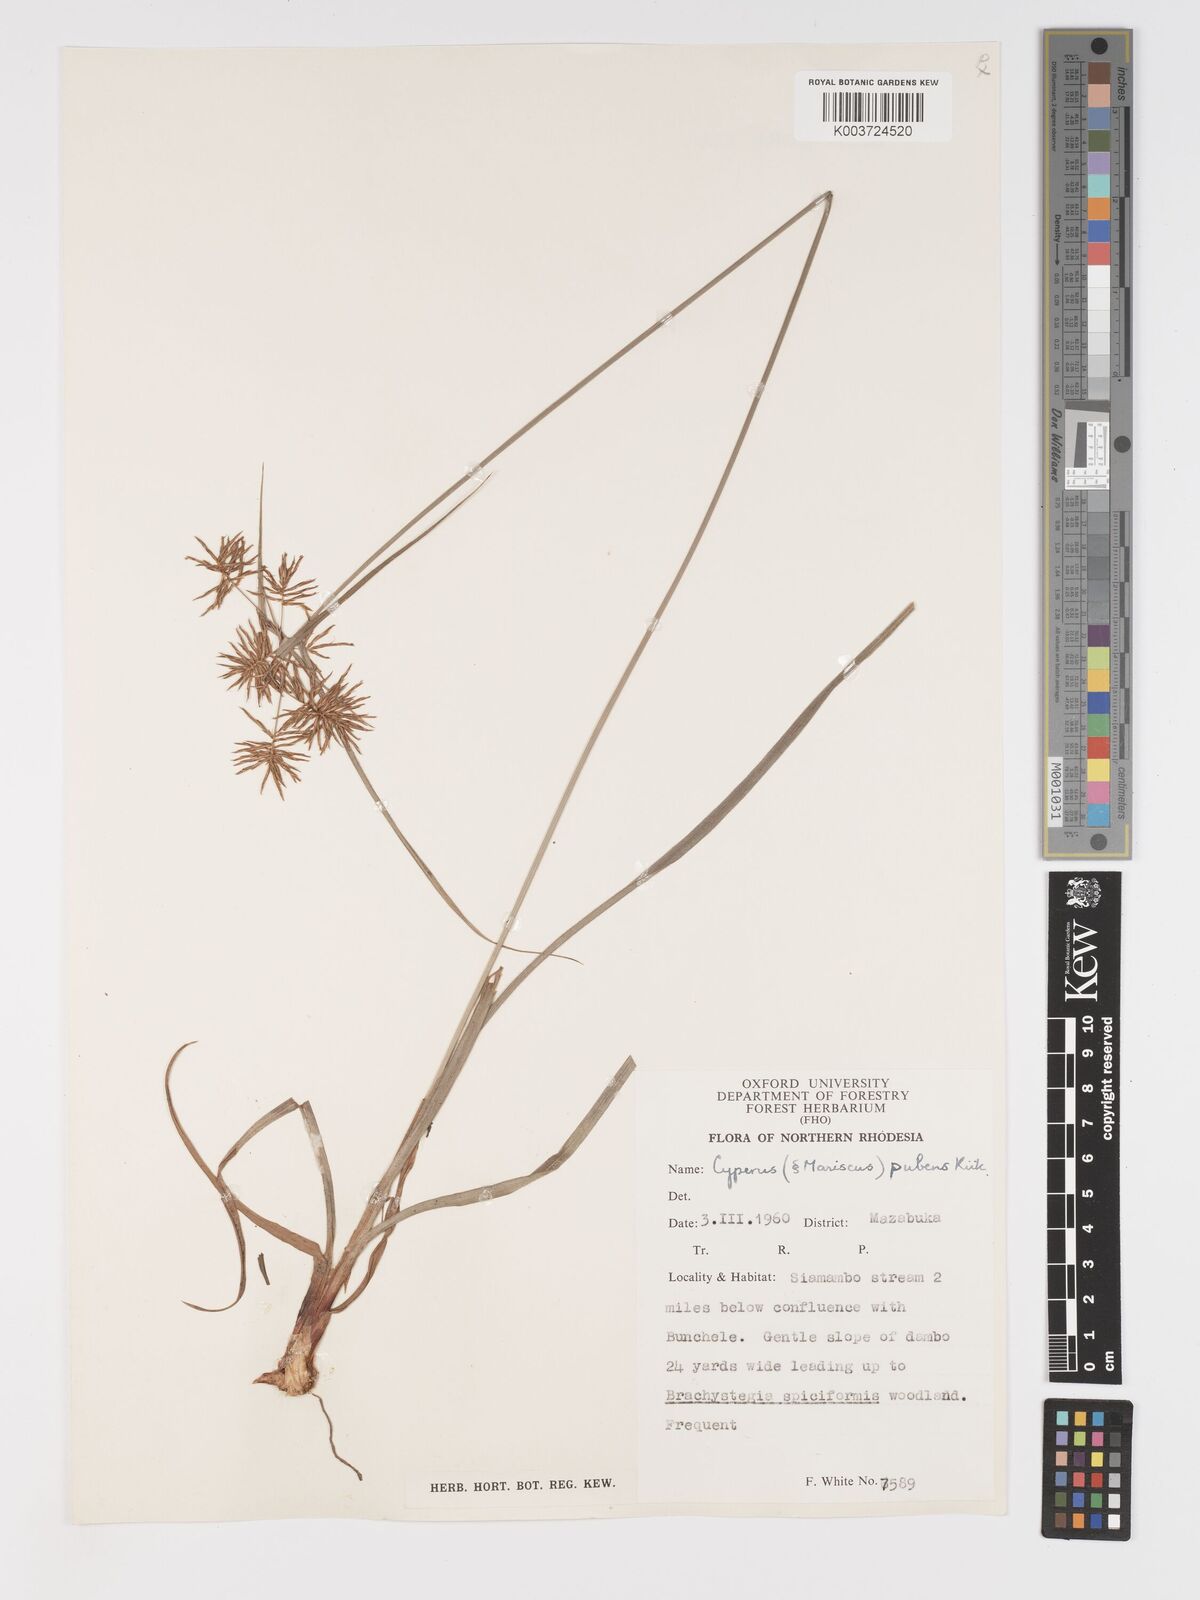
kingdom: Plantae
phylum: Tracheophyta
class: Liliopsida
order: Poales
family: Cyperaceae
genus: Cyperus
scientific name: Cyperus pubens
